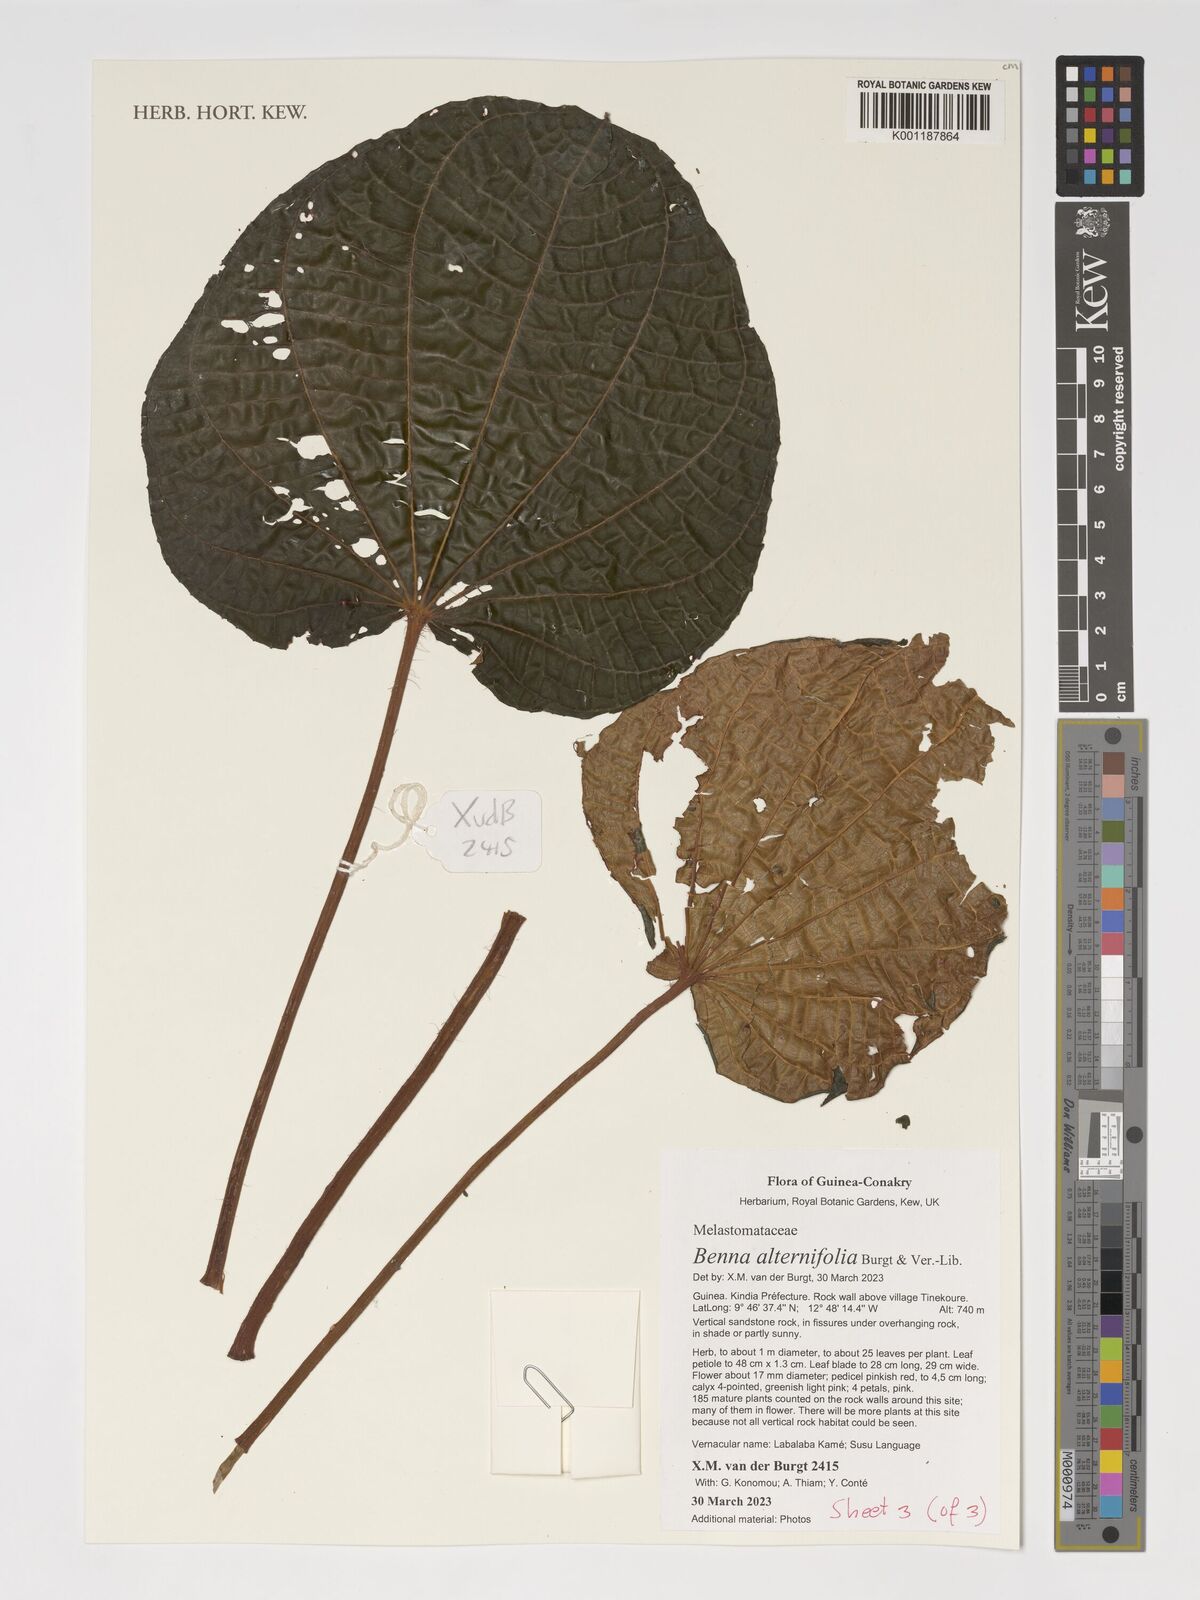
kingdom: Plantae
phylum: Tracheophyta
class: Magnoliopsida
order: Myrtales
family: Melastomataceae
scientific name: Melastomataceae
